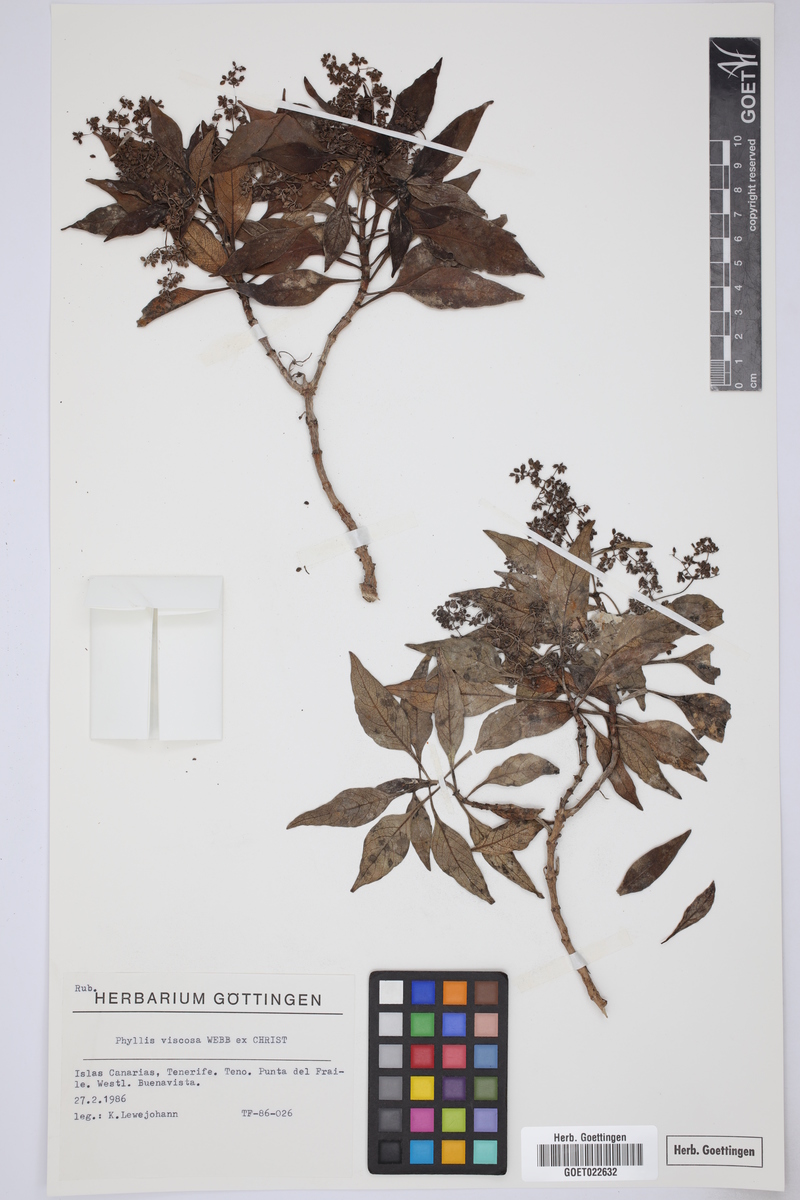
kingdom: Plantae
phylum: Tracheophyta
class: Magnoliopsida
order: Gentianales
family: Rubiaceae
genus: Phyllis
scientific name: Phyllis viscosa
